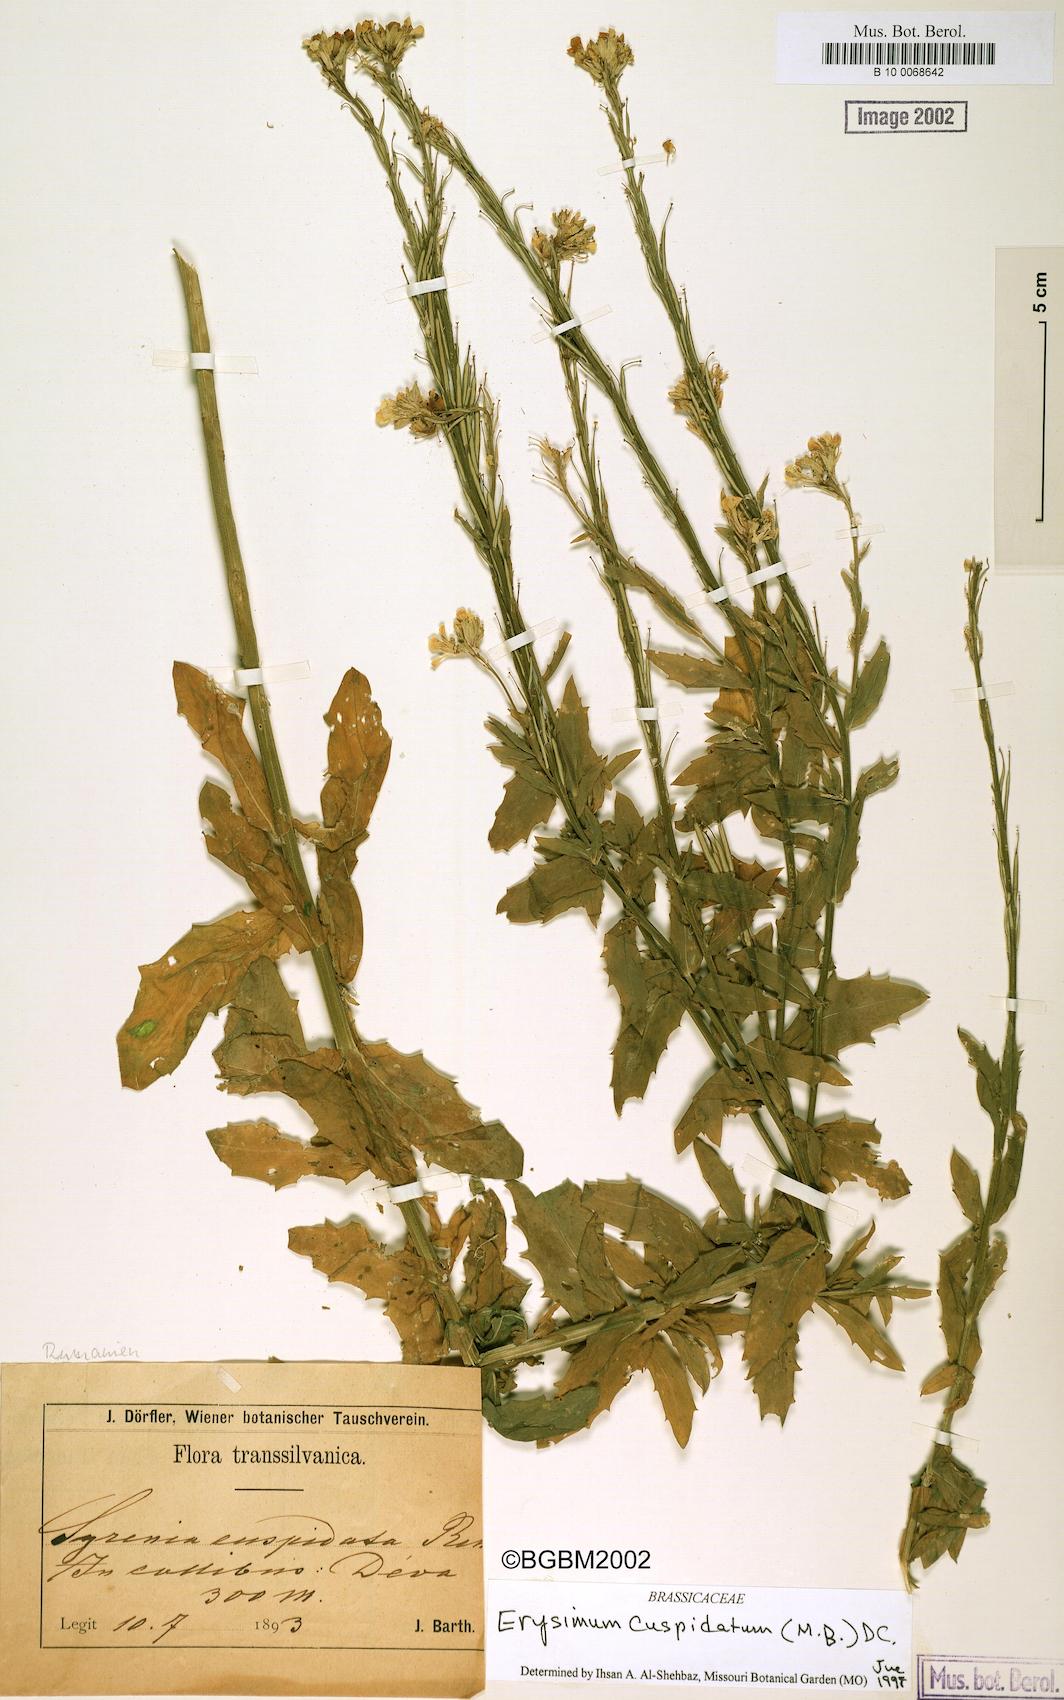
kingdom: Plantae
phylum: Tracheophyta
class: Magnoliopsida
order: Brassicales
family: Brassicaceae
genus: Erysimum
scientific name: Erysimum cuspidatum
